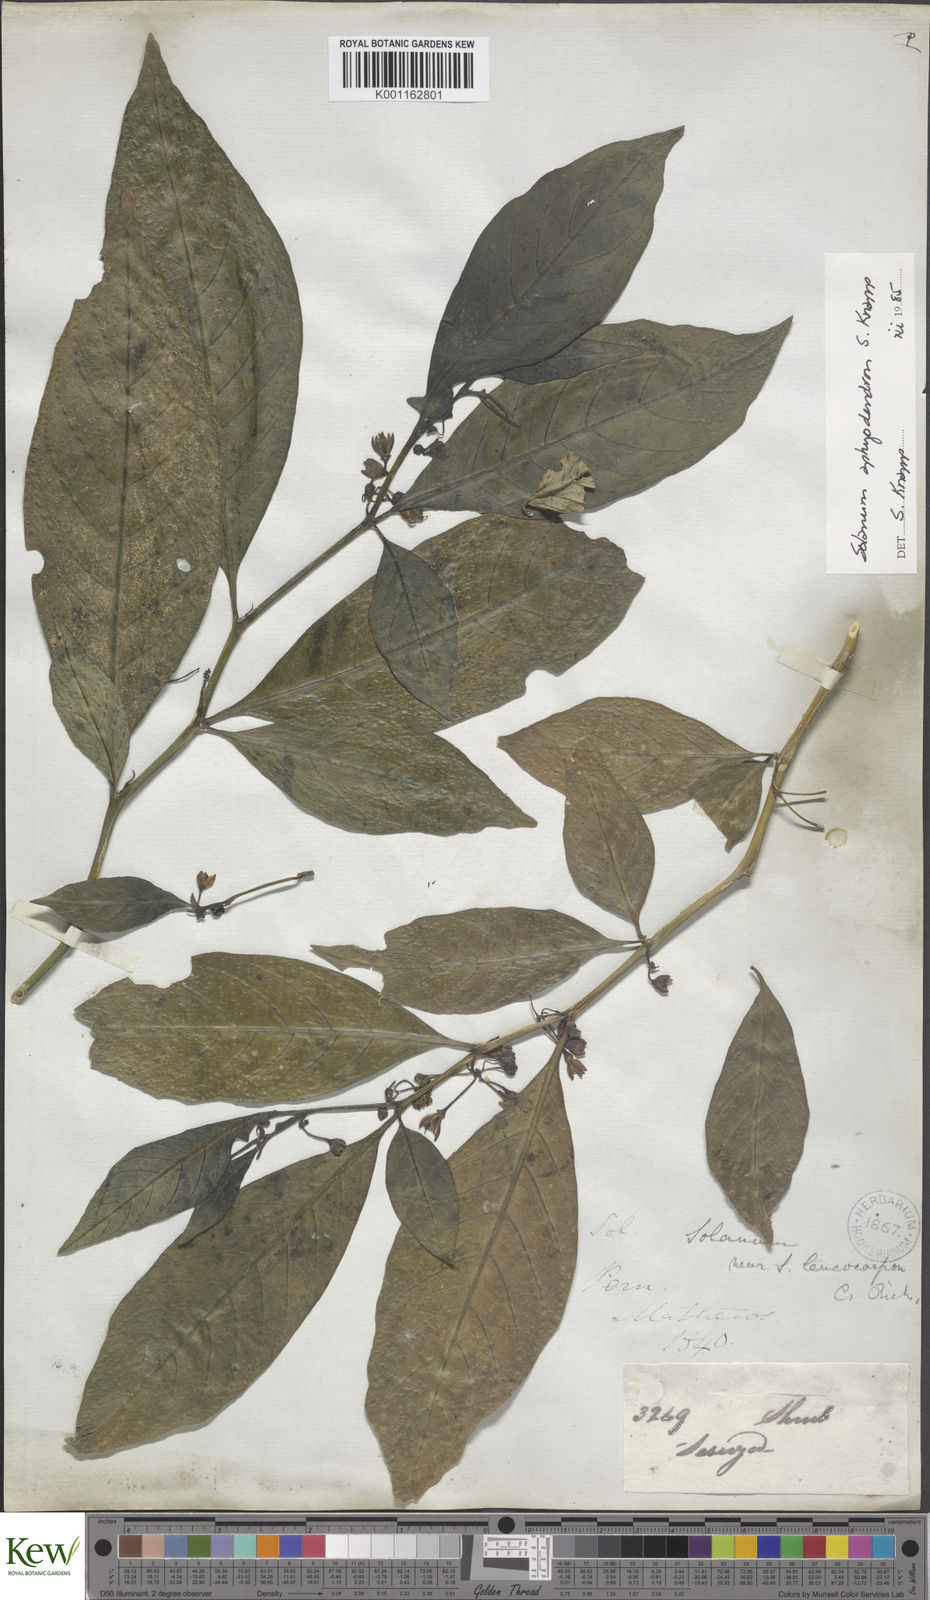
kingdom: Plantae
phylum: Tracheophyta
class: Magnoliopsida
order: Solanales
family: Solanaceae
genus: Solanum
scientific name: Solanum aphyodendron
